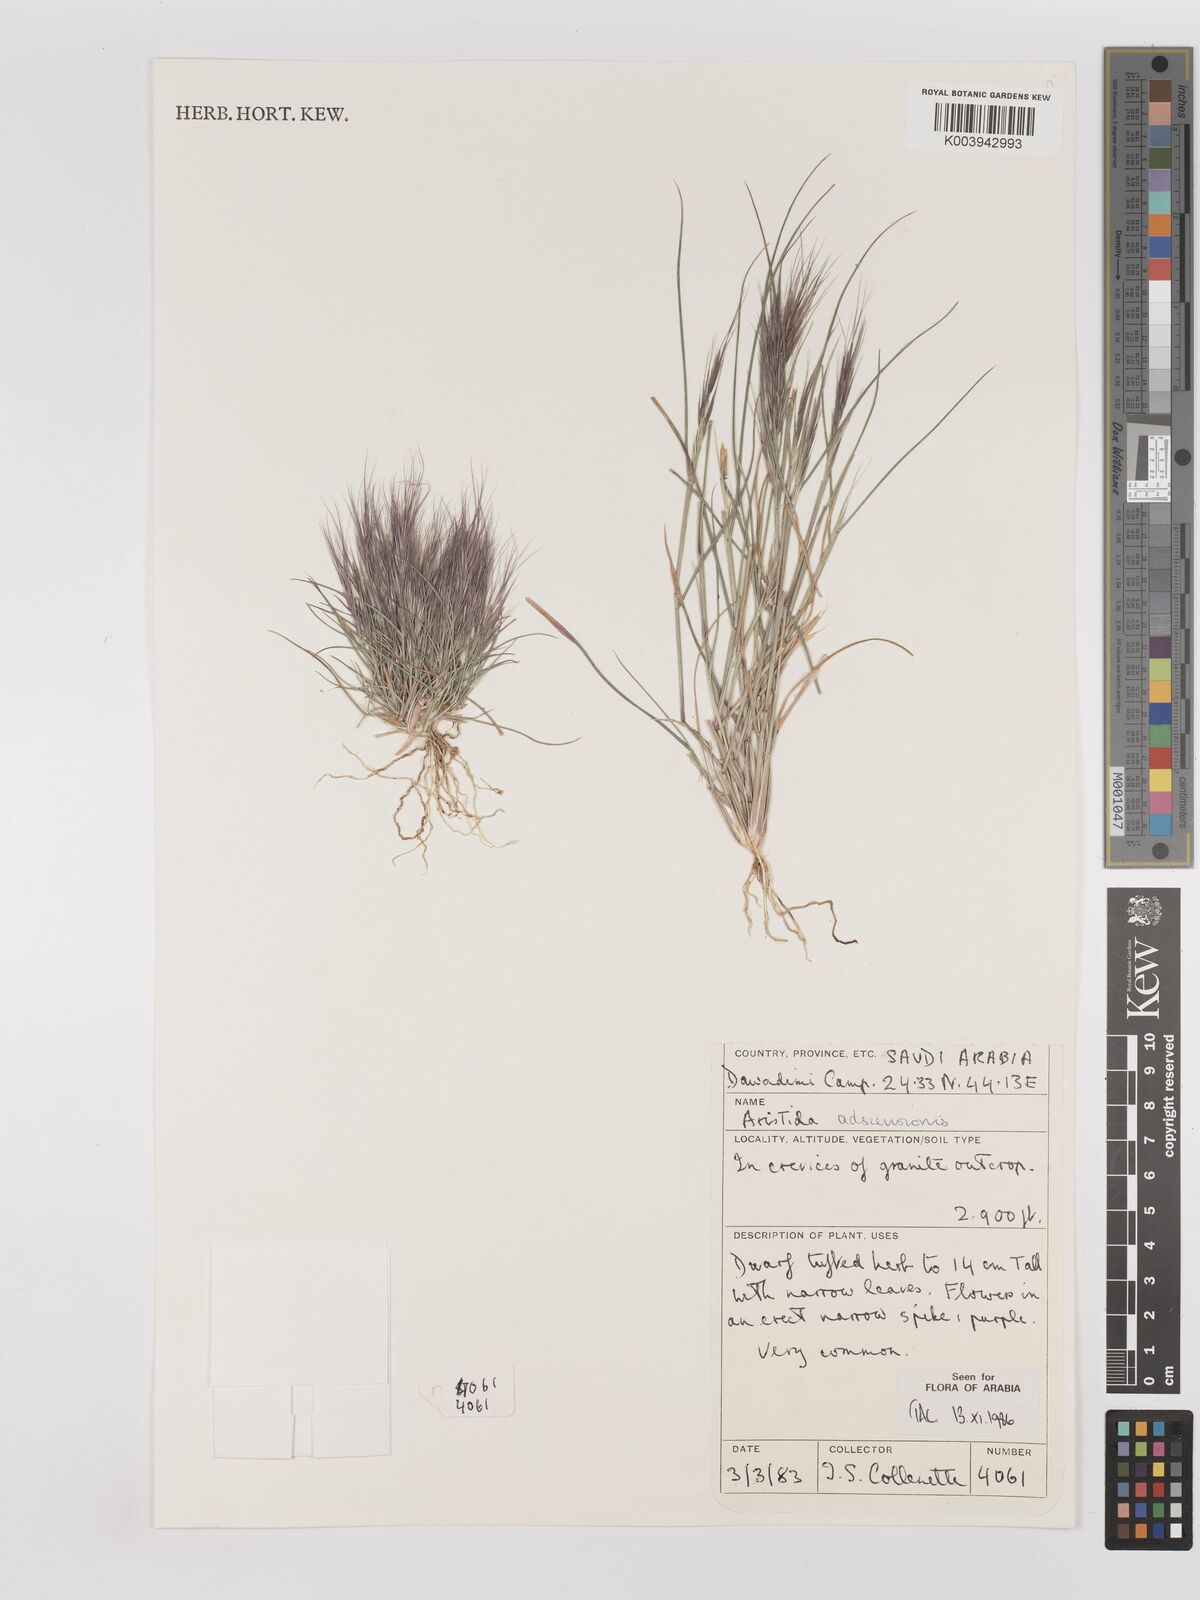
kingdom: Plantae
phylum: Tracheophyta
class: Liliopsida
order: Poales
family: Poaceae
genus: Aristida
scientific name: Aristida adscensionis
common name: Sixweeks threeawn
